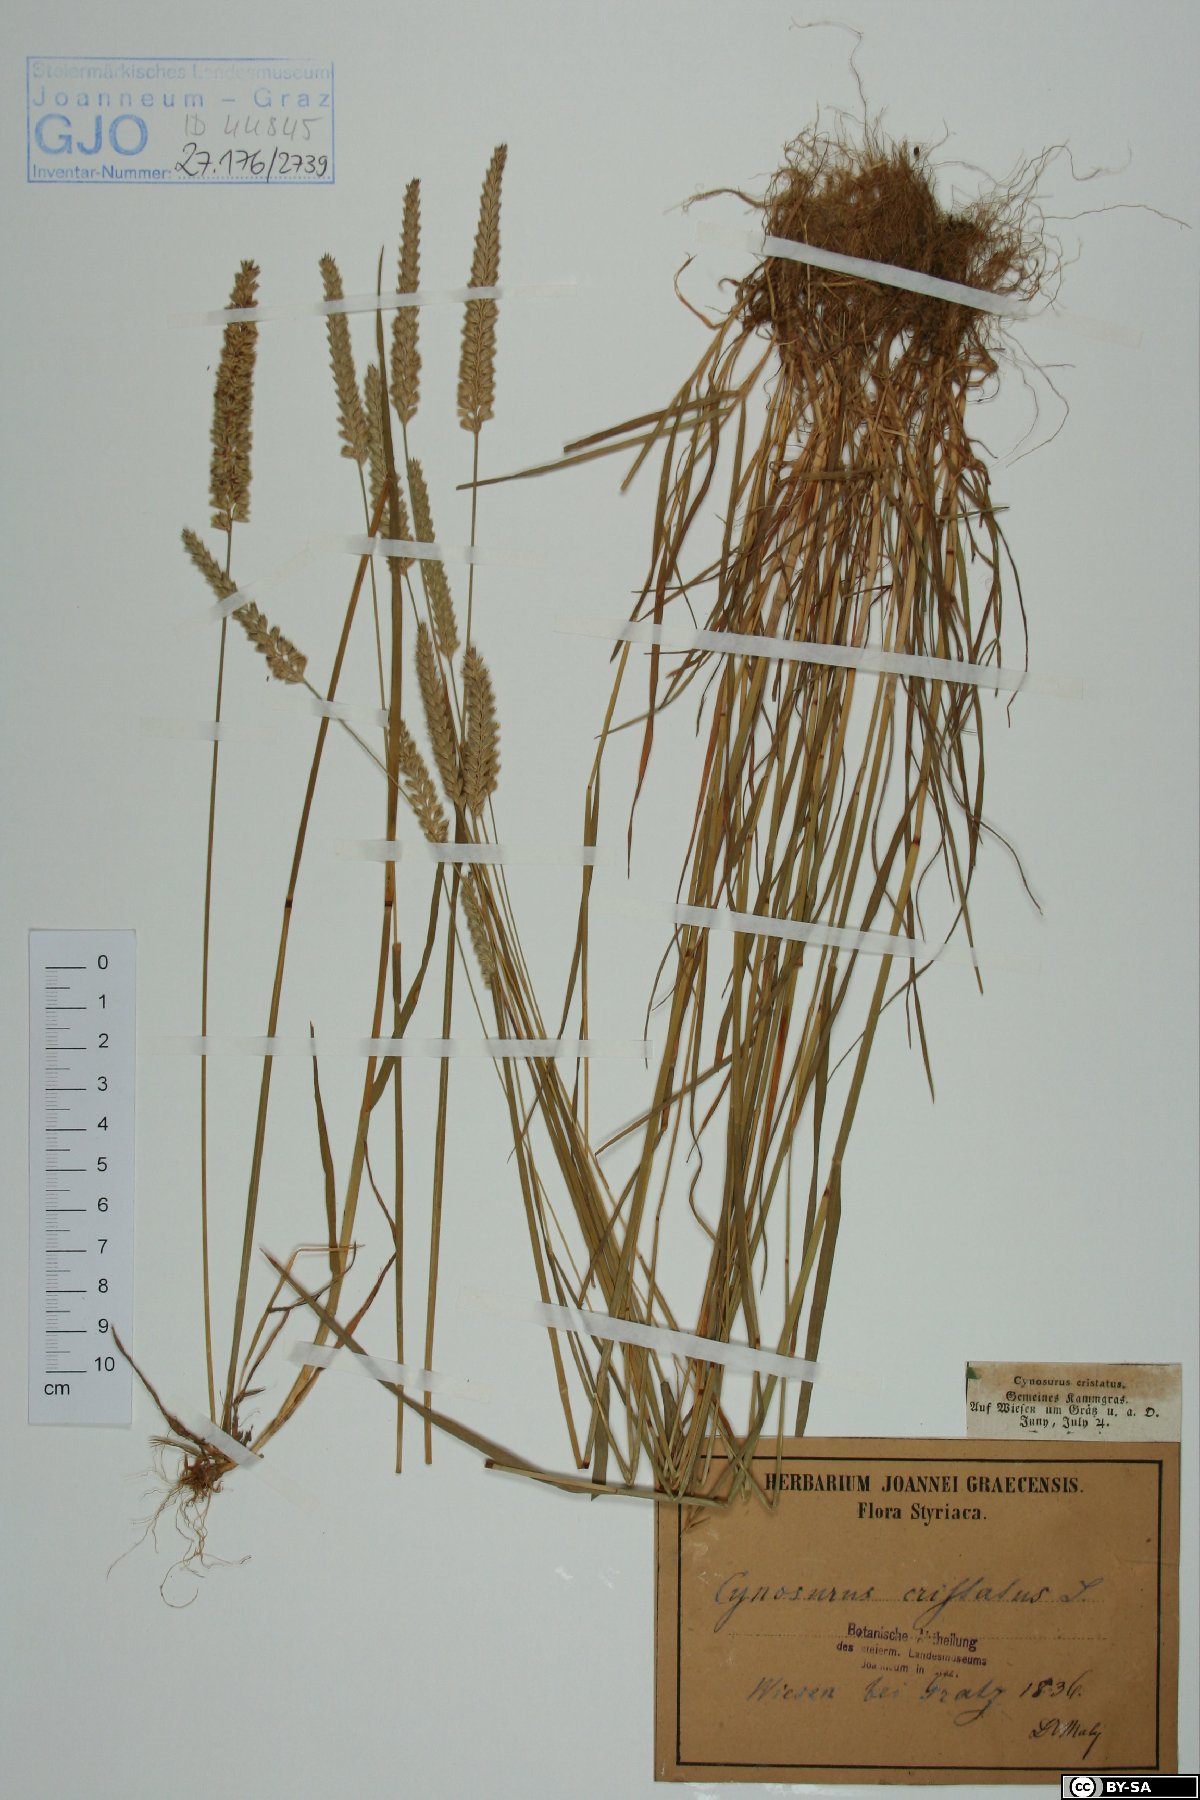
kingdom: Plantae
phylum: Tracheophyta
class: Liliopsida
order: Poales
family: Poaceae
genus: Cynosurus
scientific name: Cynosurus cristatus
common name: Crested dog's-tail
